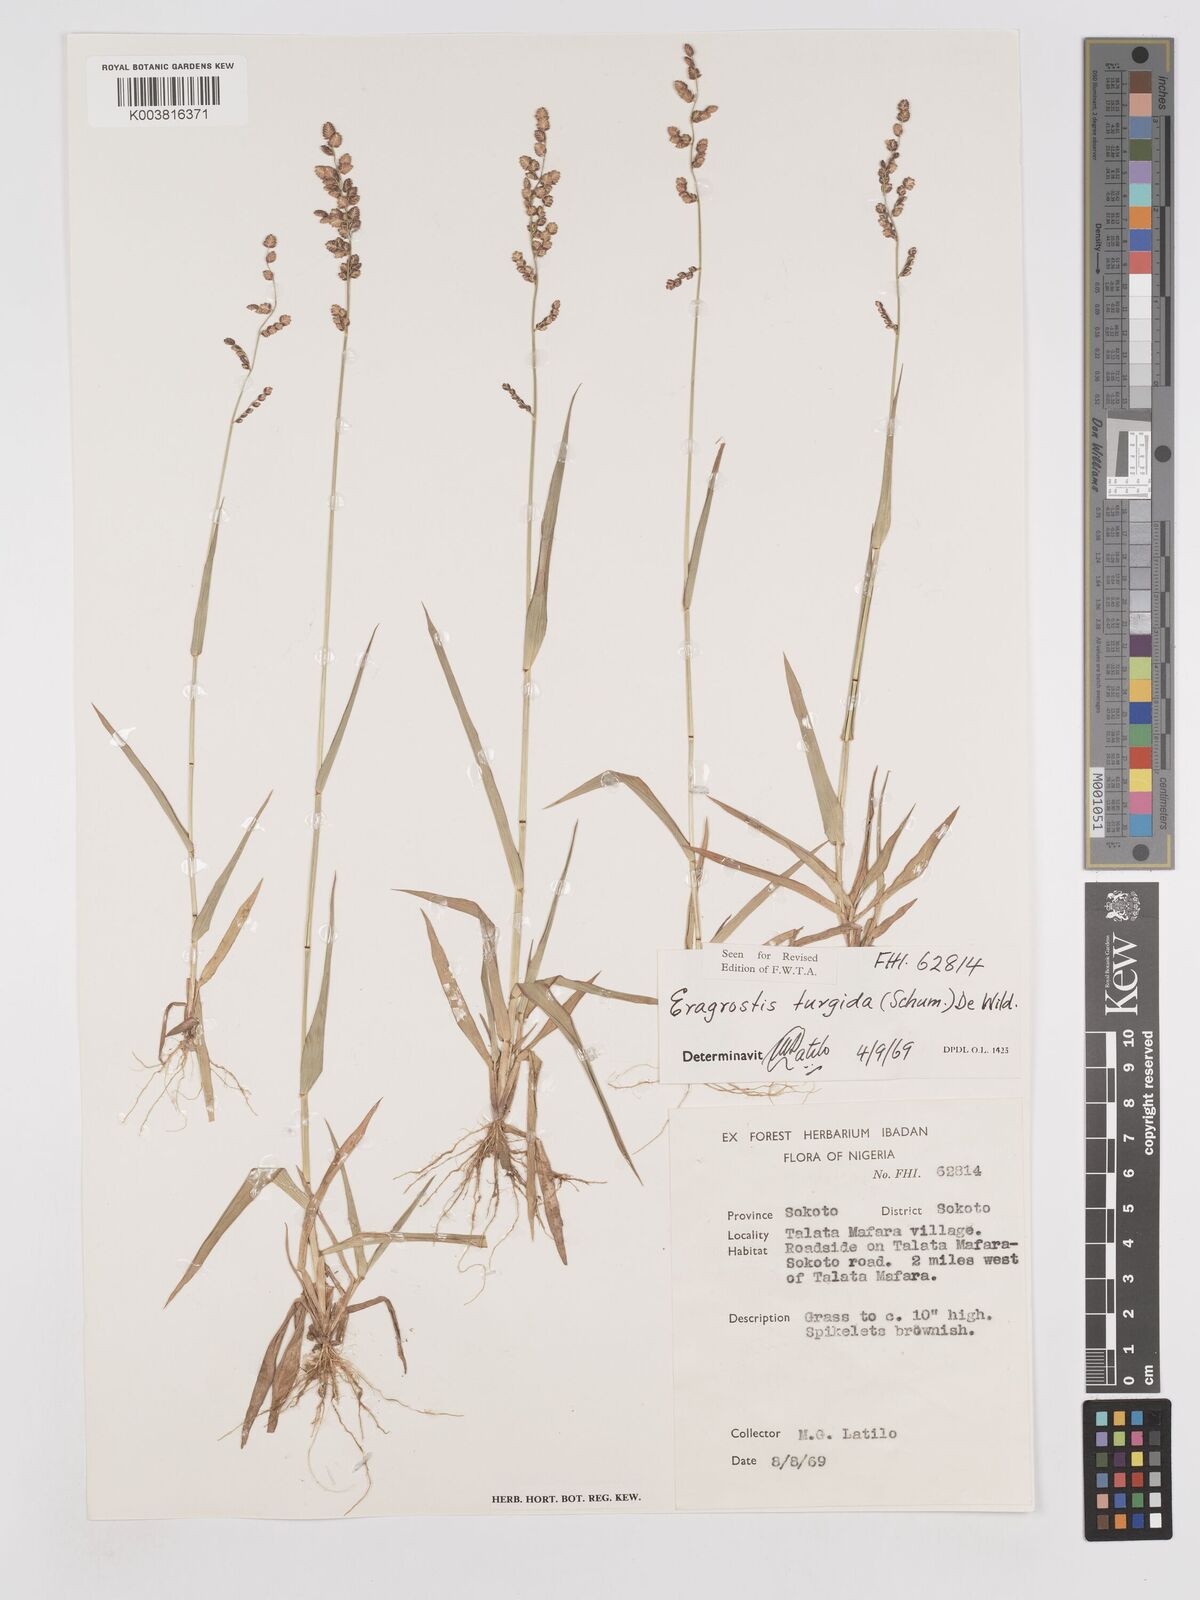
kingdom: Plantae
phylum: Tracheophyta
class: Liliopsida
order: Poales
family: Poaceae
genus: Eragrostis
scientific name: Eragrostis turgida
